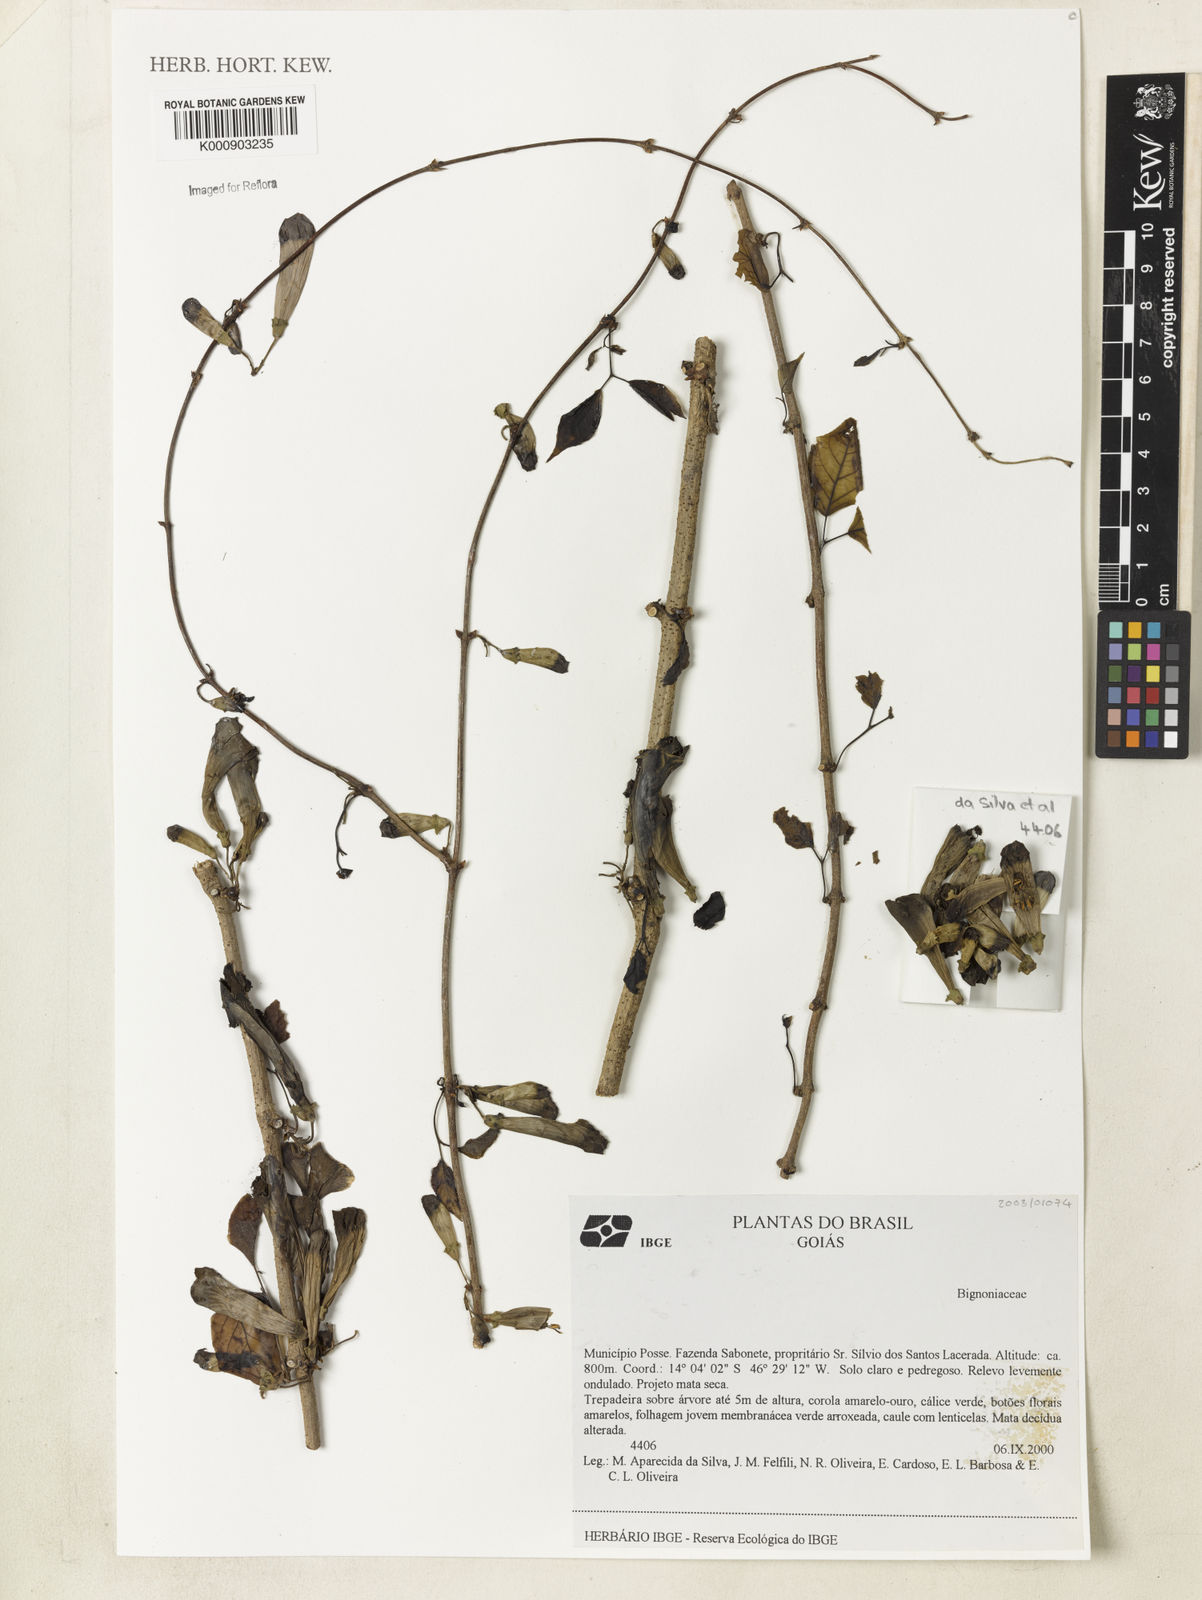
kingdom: Plantae
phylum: Tracheophyta
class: Magnoliopsida
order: Lamiales
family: Bignoniaceae
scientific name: Bignoniaceae
